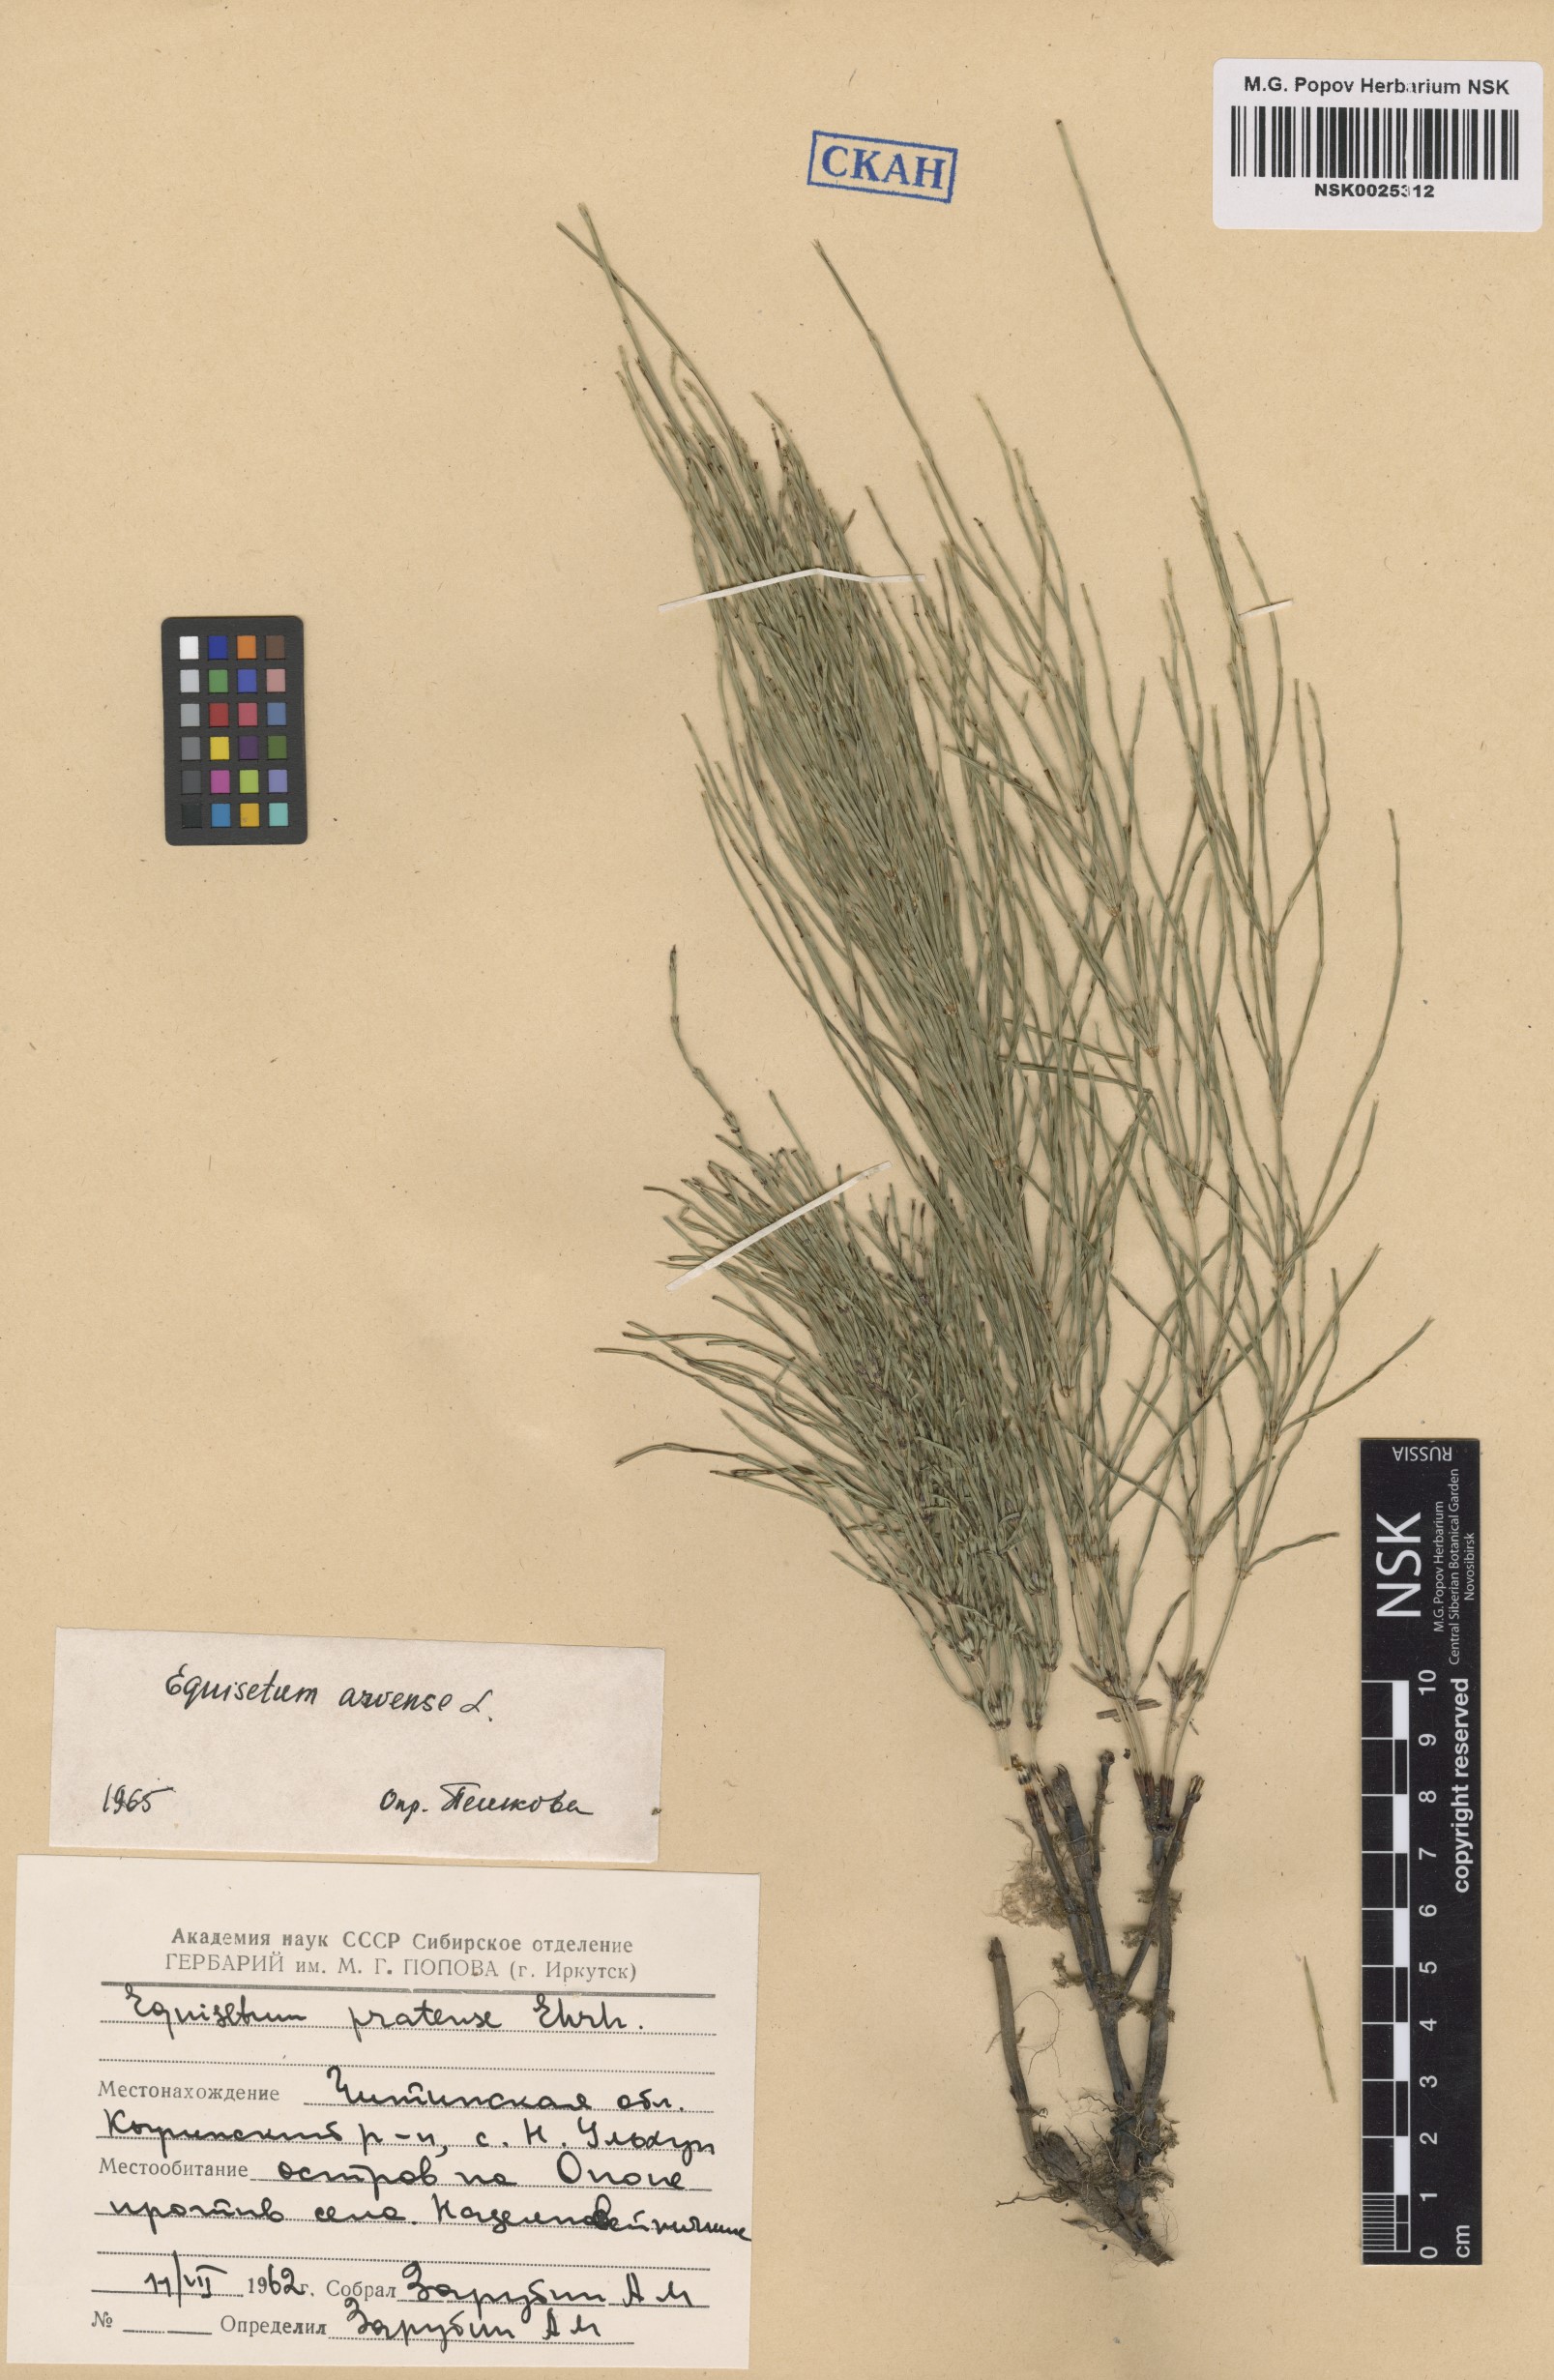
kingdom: Plantae
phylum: Tracheophyta
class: Polypodiopsida
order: Equisetales
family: Equisetaceae
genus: Equisetum
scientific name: Equisetum arvense
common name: Field horsetail
